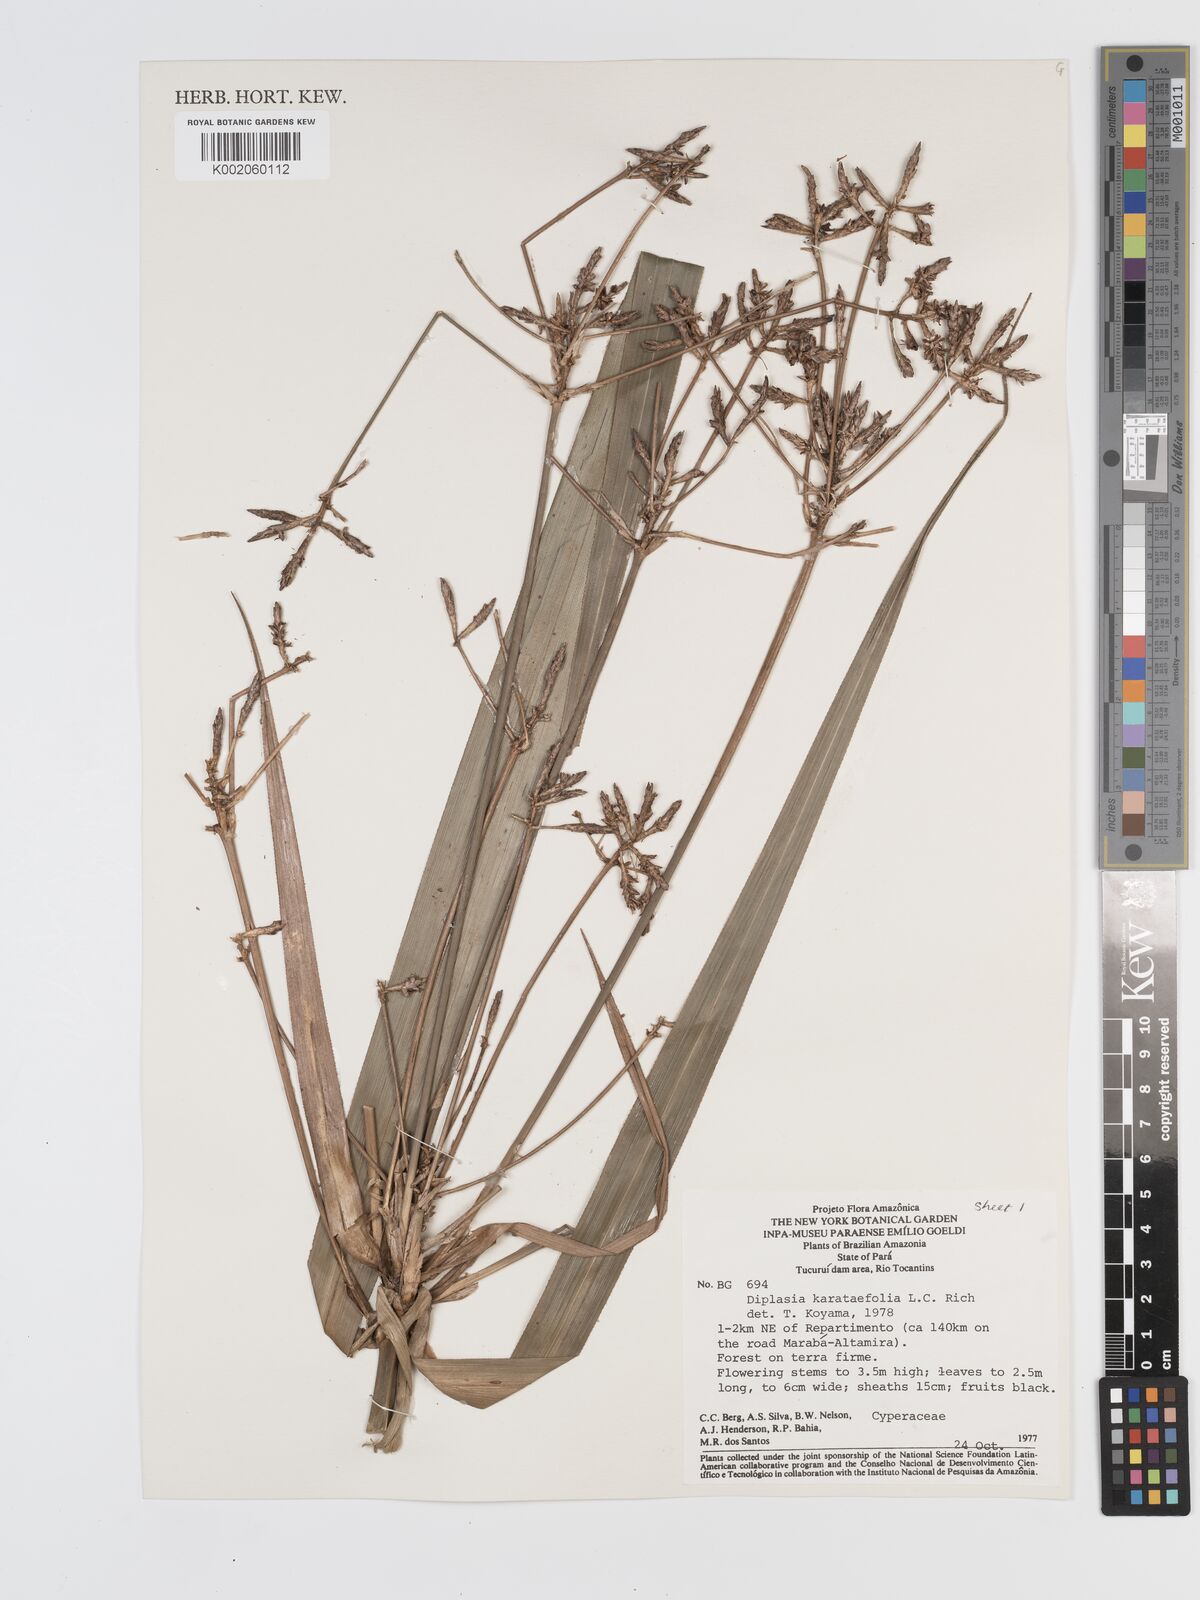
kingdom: Plantae
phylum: Tracheophyta
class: Liliopsida
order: Poales
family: Cyperaceae
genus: Diplasia
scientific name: Diplasia karatifolia
